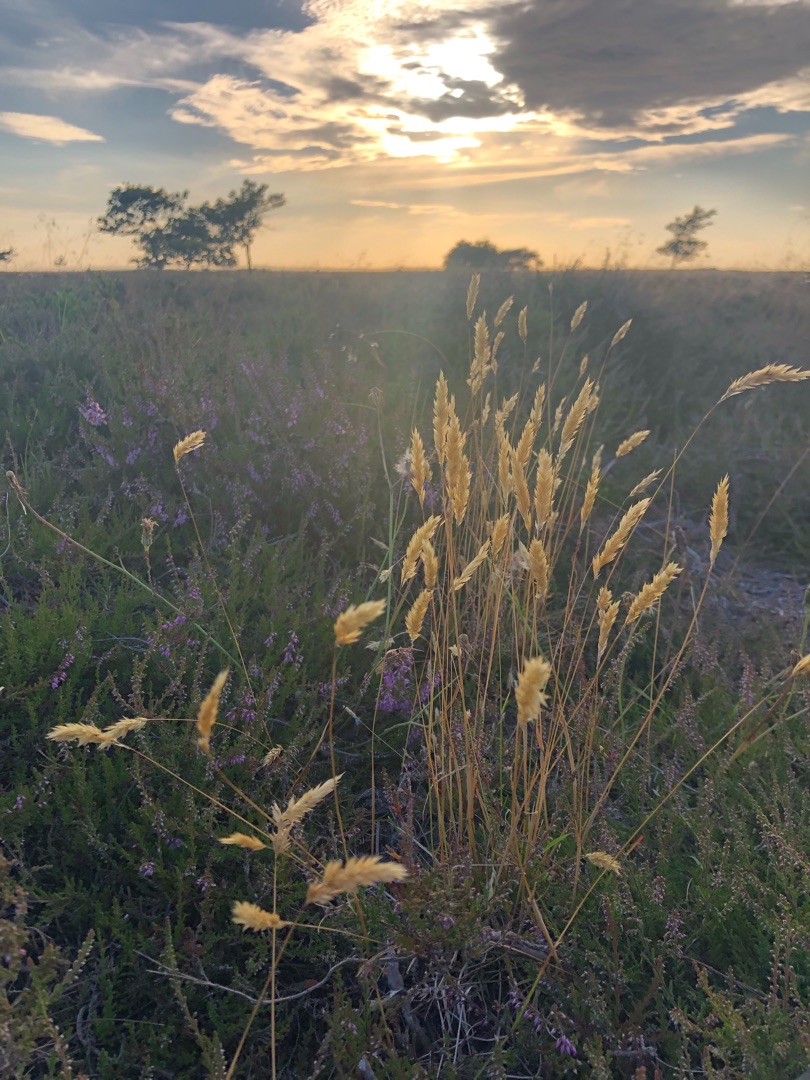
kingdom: Plantae
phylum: Tracheophyta
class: Liliopsida
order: Poales
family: Poaceae
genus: Anthoxanthum
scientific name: Anthoxanthum odoratum
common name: Vellugtende gulaks
